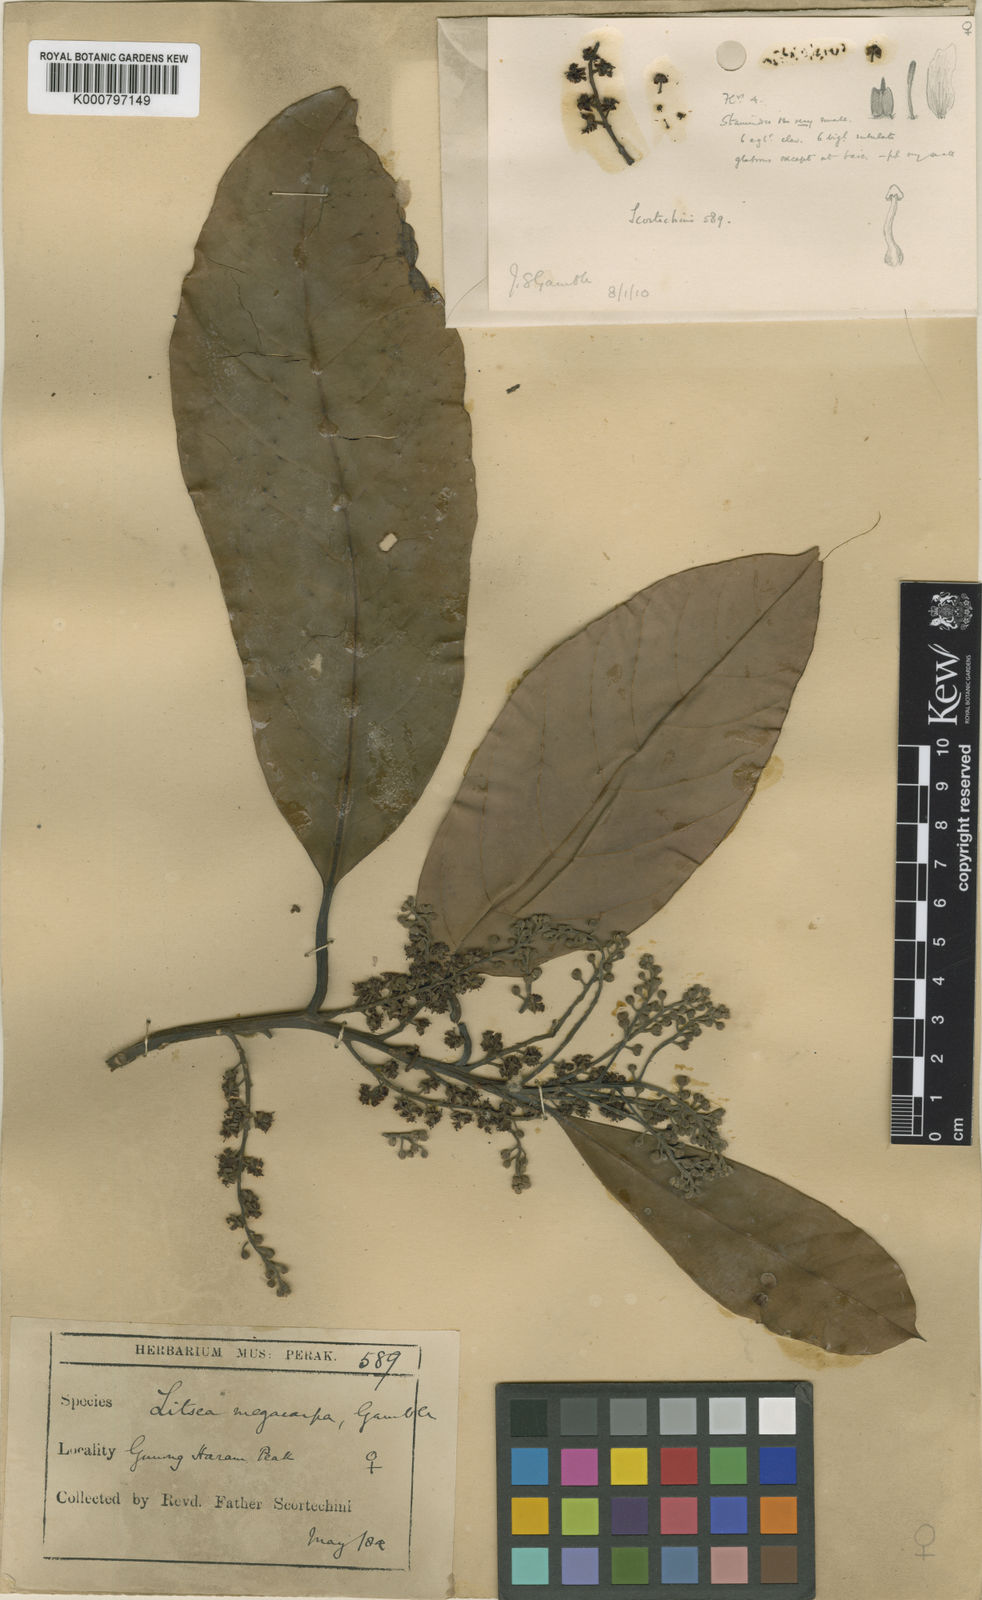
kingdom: Plantae
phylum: Tracheophyta
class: Magnoliopsida
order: Laurales
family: Lauraceae
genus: Litsea
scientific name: Litsea costalis
